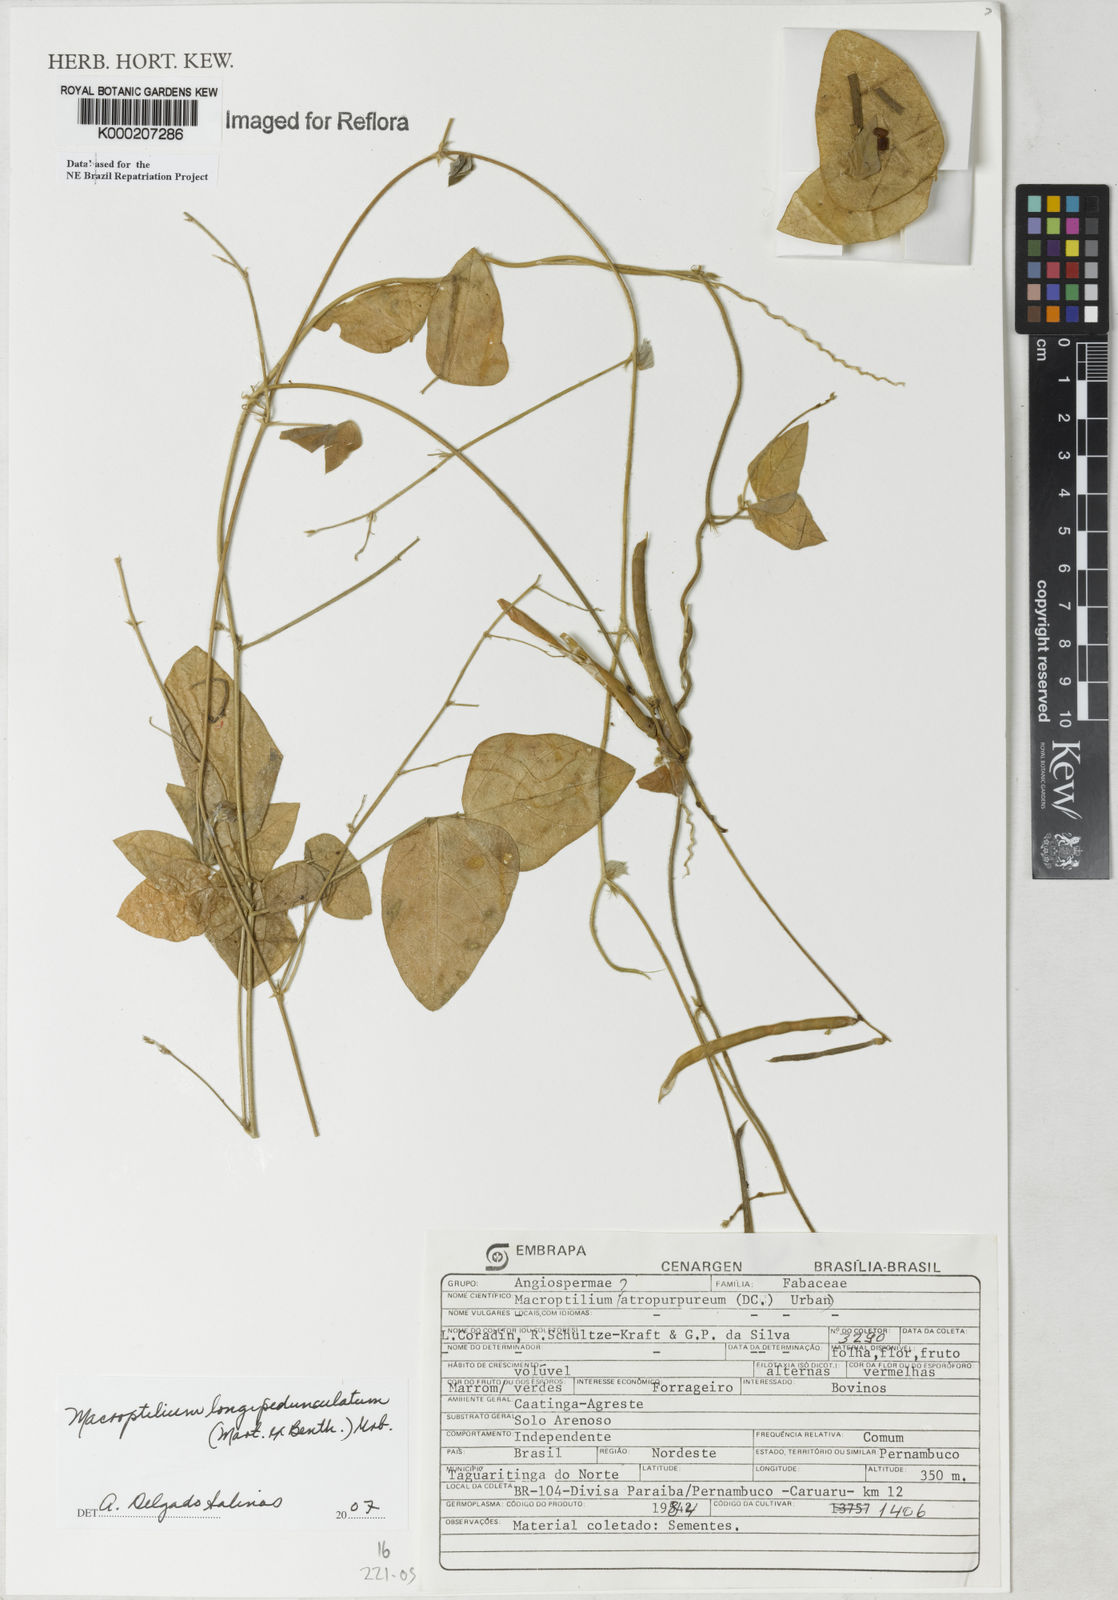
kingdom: Plantae
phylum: Tracheophyta
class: Magnoliopsida
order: Fabales
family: Fabaceae
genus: Macroptilium
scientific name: Macroptilium atropurpureum
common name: Purple bushbean
